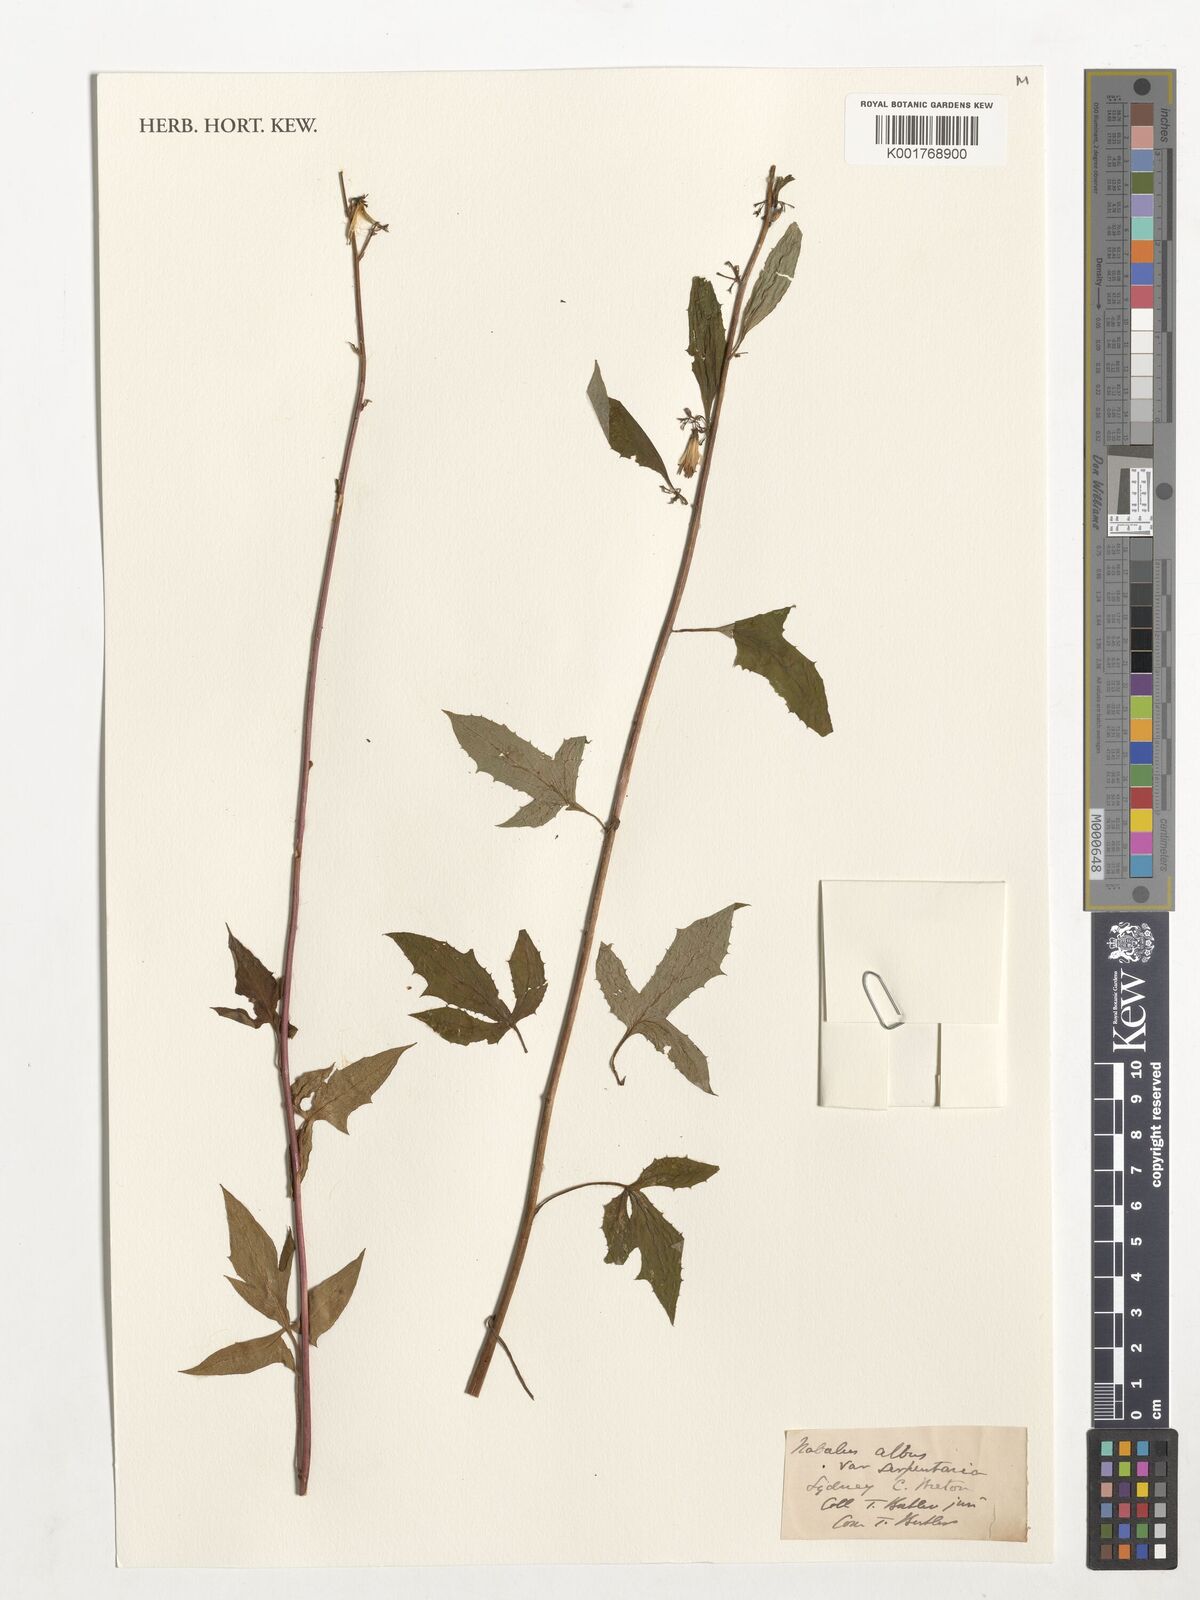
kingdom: Plantae
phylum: Tracheophyta
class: Magnoliopsida
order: Asterales
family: Asteraceae
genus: Nabalus
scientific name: Nabalus serpentarius
